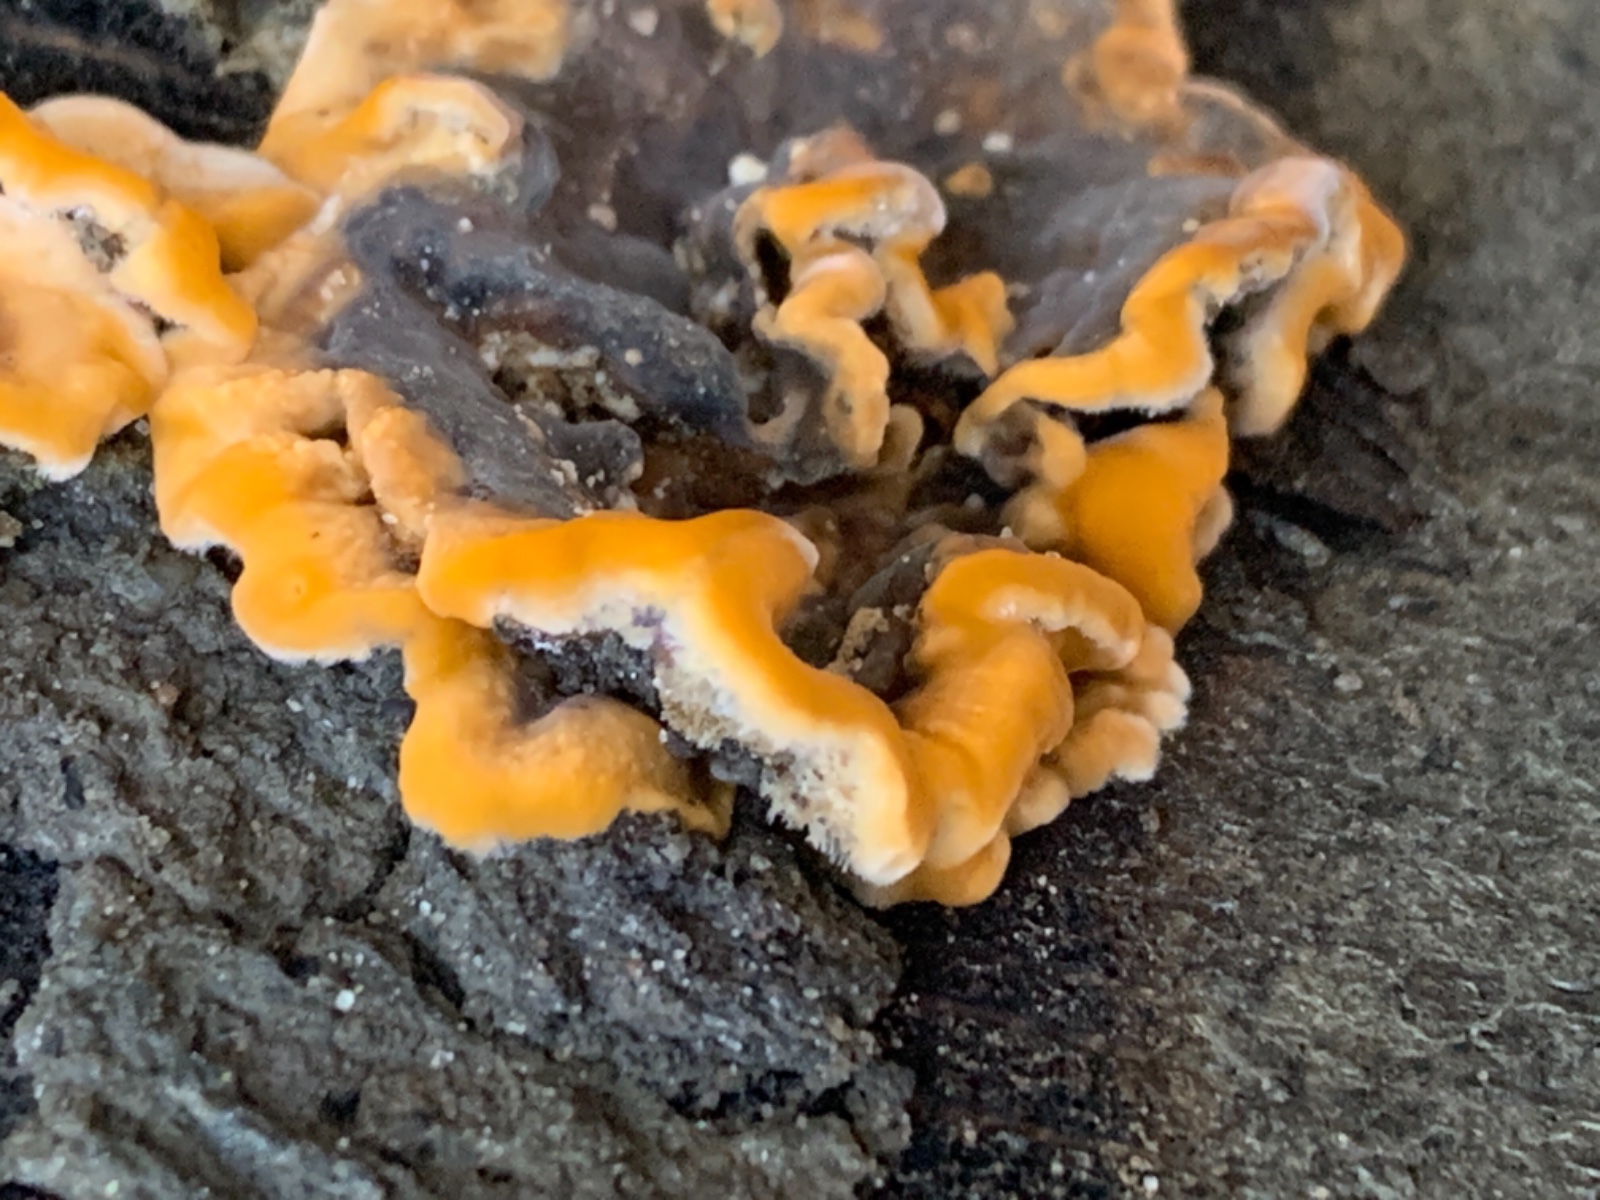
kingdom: Fungi
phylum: Basidiomycota
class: Agaricomycetes
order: Russulales
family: Stereaceae
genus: Stereum
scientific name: Stereum hirsutum
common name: håret lædersvamp
